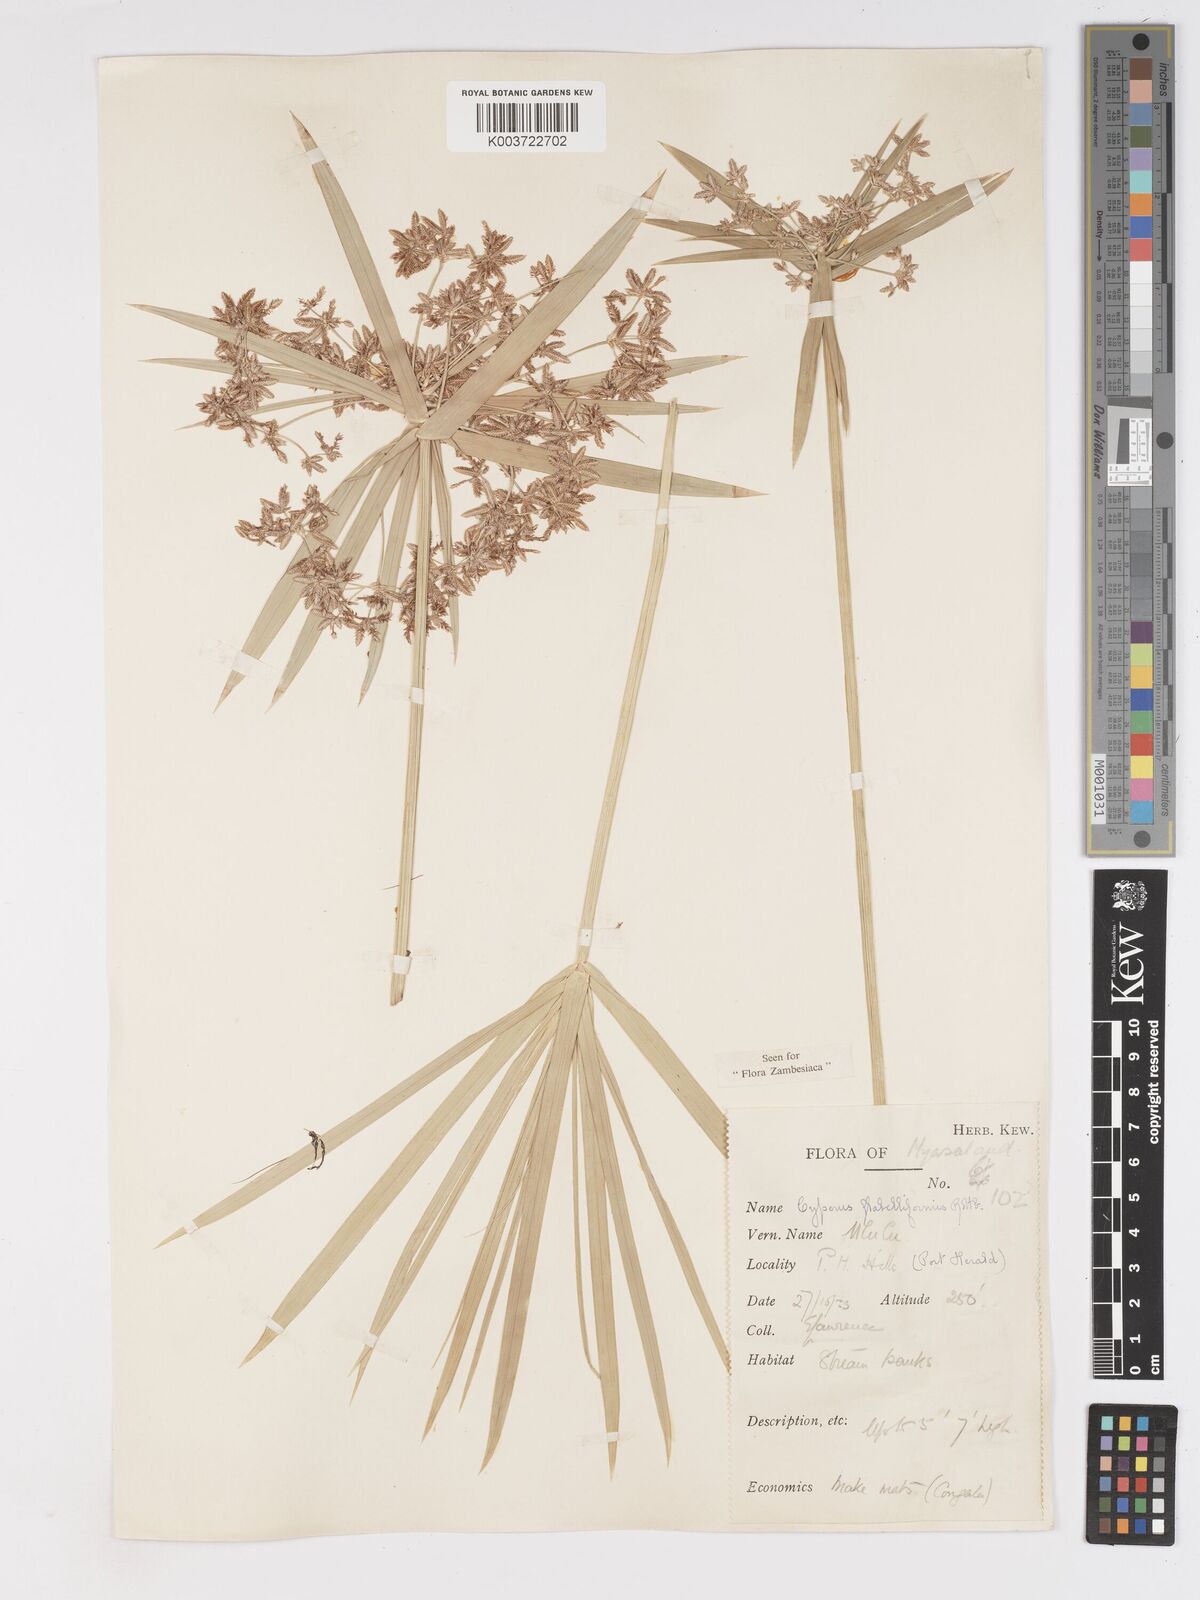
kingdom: Plantae
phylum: Tracheophyta
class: Liliopsida
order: Poales
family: Cyperaceae
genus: Cyperus
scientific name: Cyperus alternifolius
